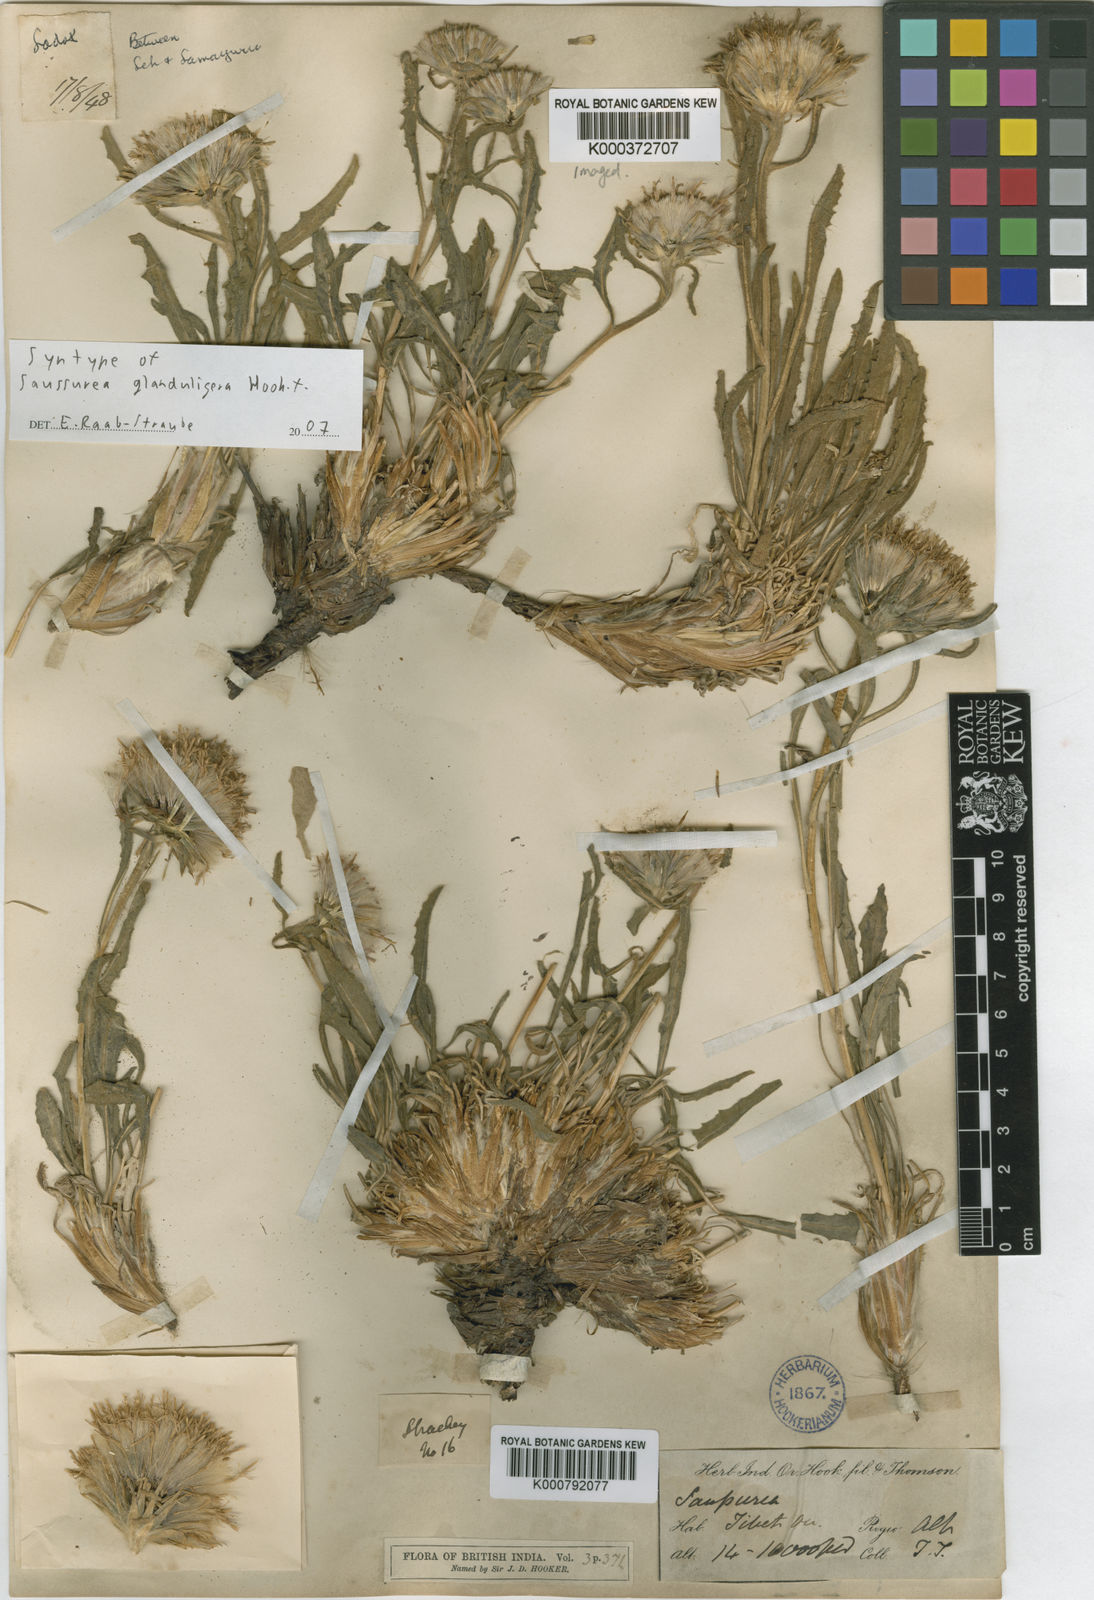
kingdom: Plantae
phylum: Tracheophyta
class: Magnoliopsida
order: Asterales
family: Asteraceae
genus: Saussurea
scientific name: Saussurea schlagintweitii
